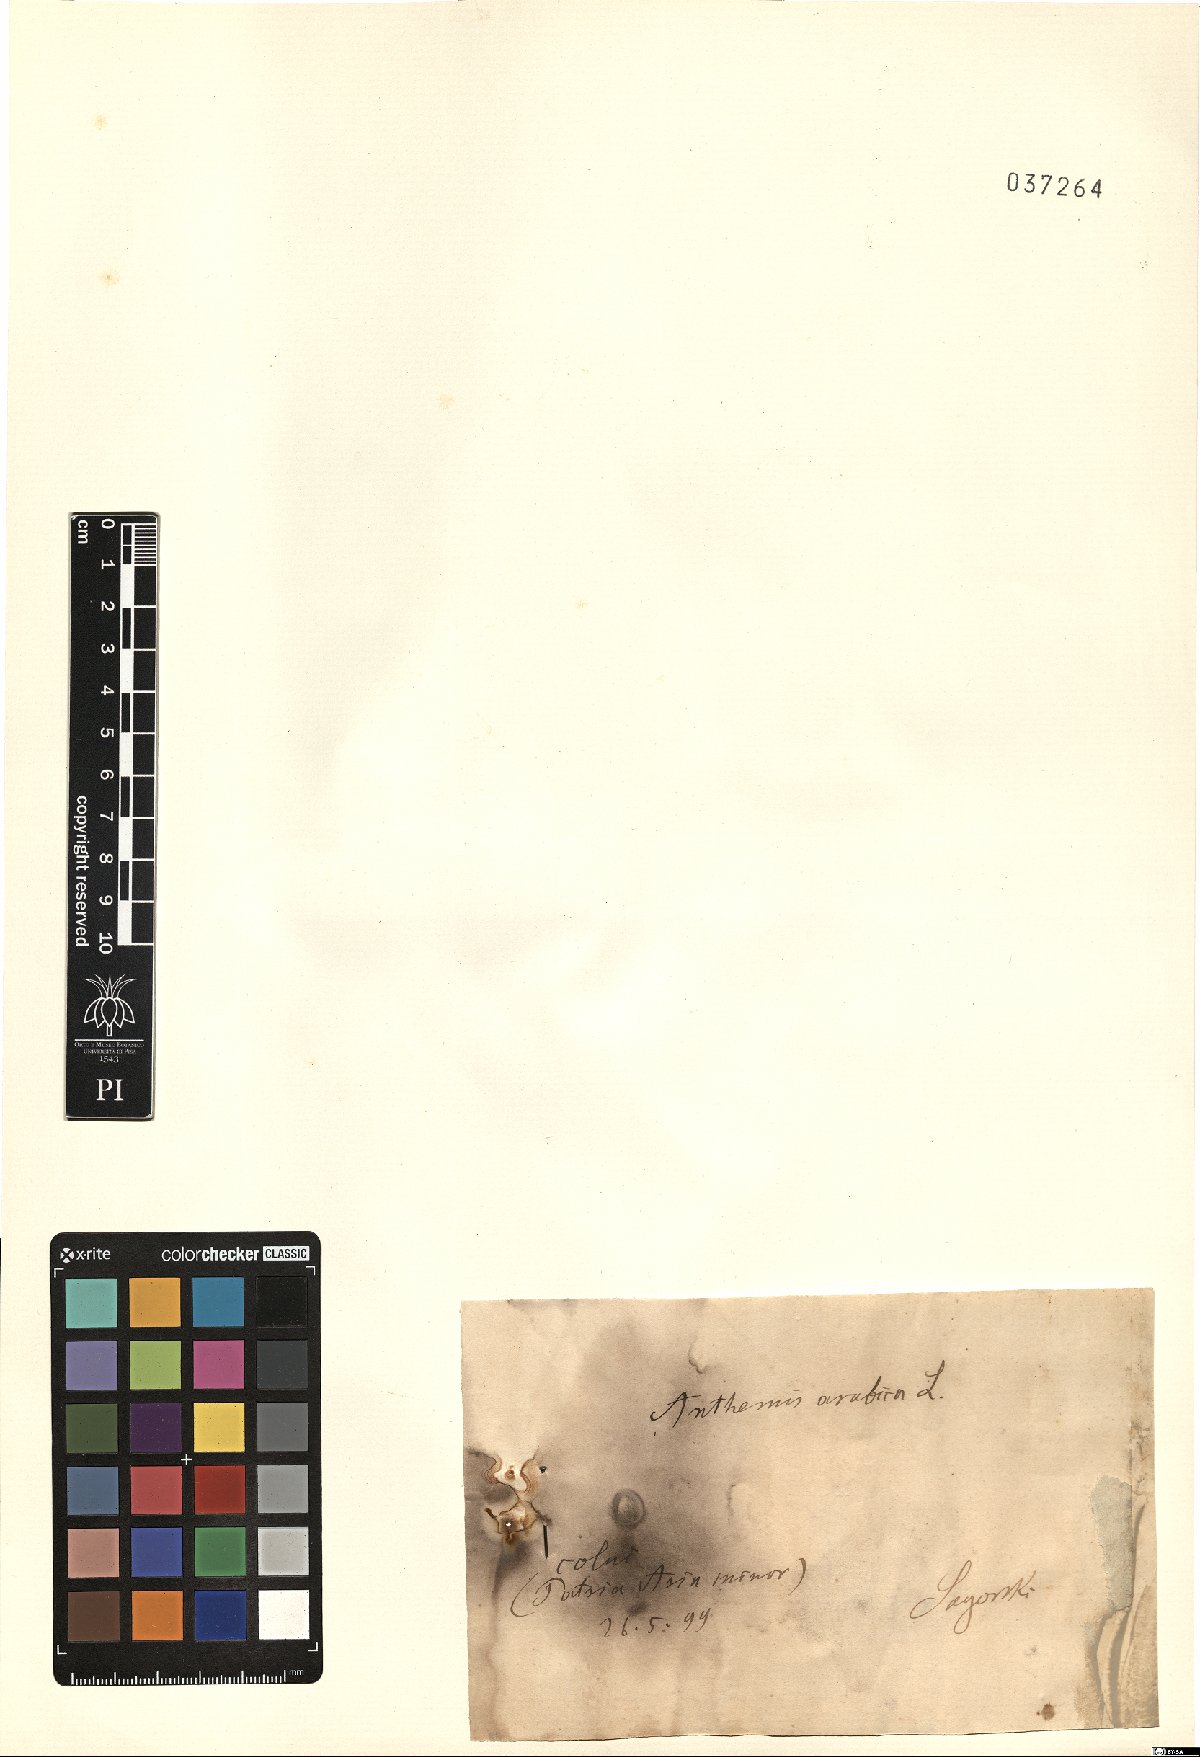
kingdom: Plantae
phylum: Tracheophyta
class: Magnoliopsida
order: Asterales
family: Asteraceae
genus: Cladanthus
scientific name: Cladanthus arabicus
